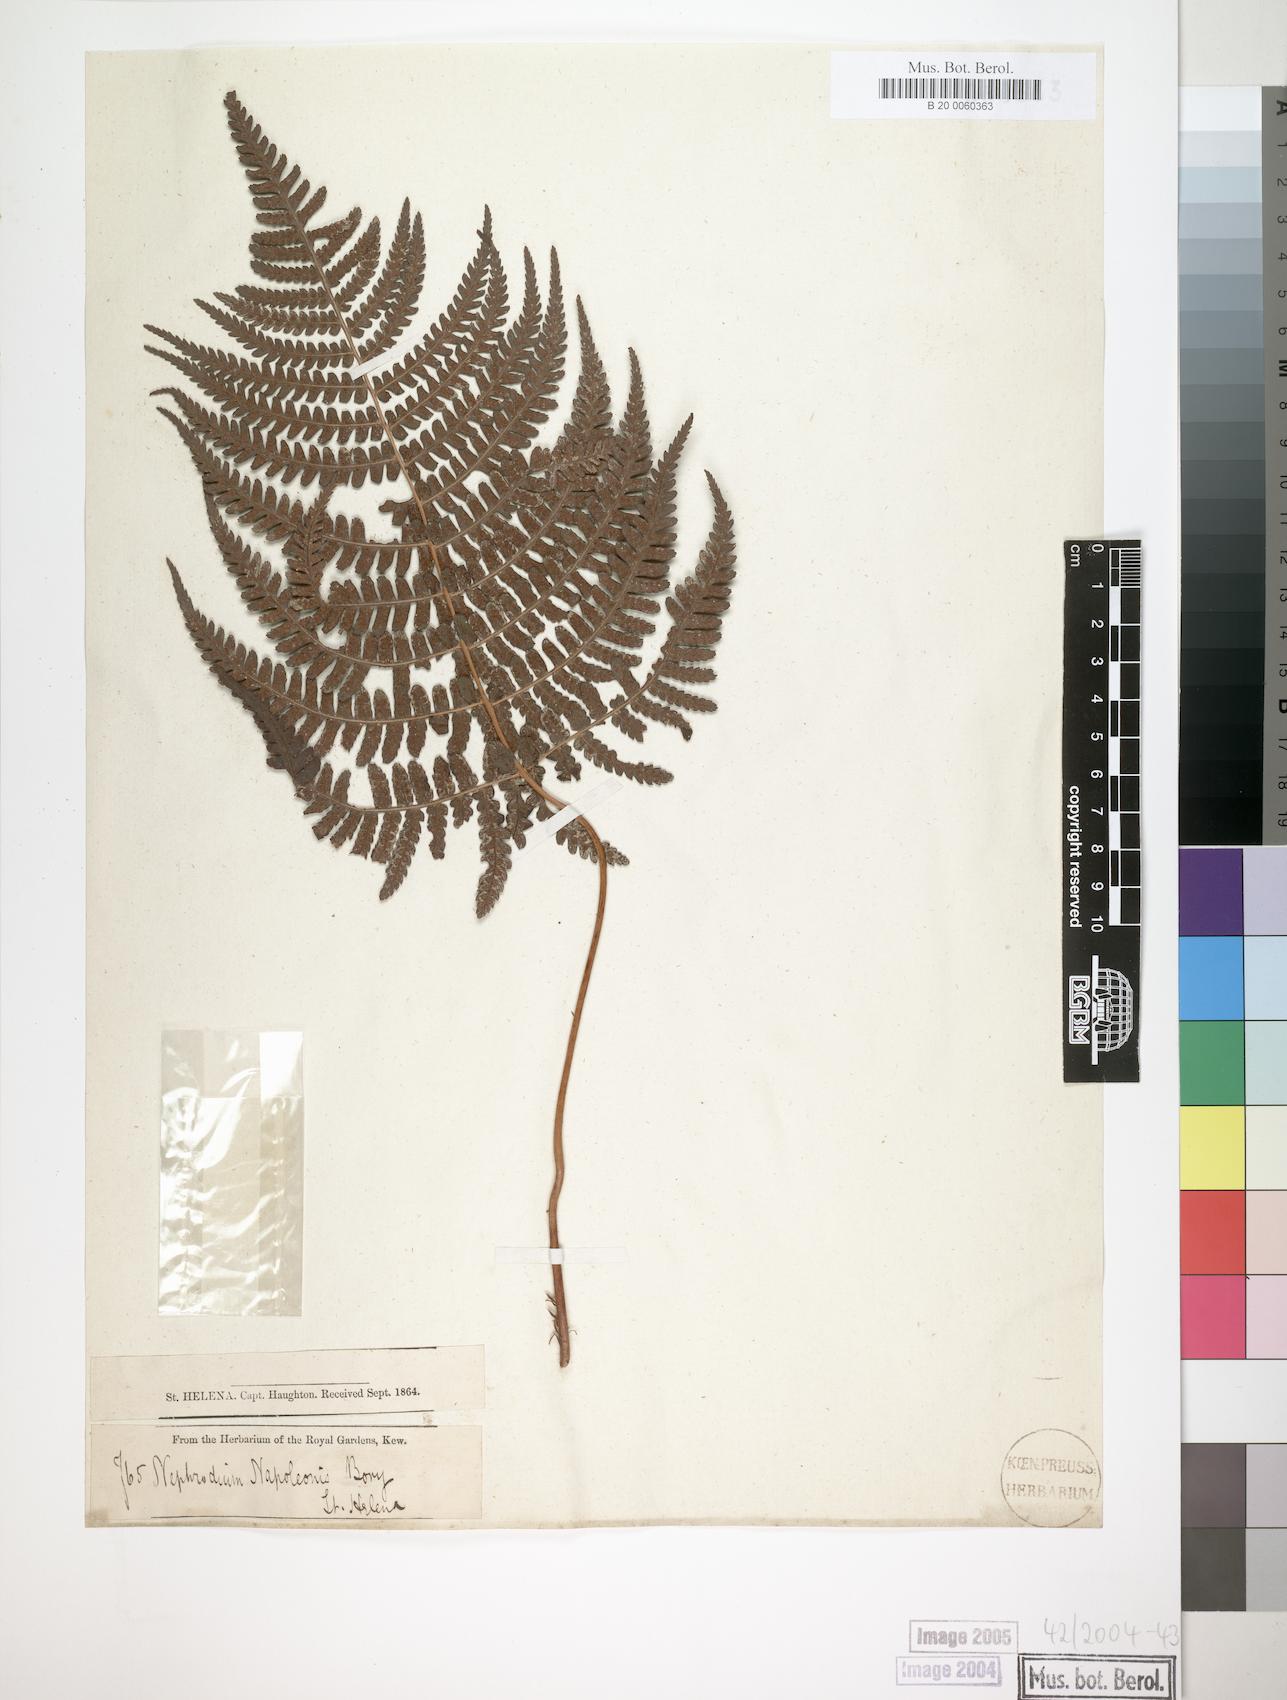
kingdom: Plantae
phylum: Tracheophyta
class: Polypodiopsida
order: Polypodiales
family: Dryopteridaceae
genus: Dryopteris
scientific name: Dryopteris napoleonis
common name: Small kidney fern
